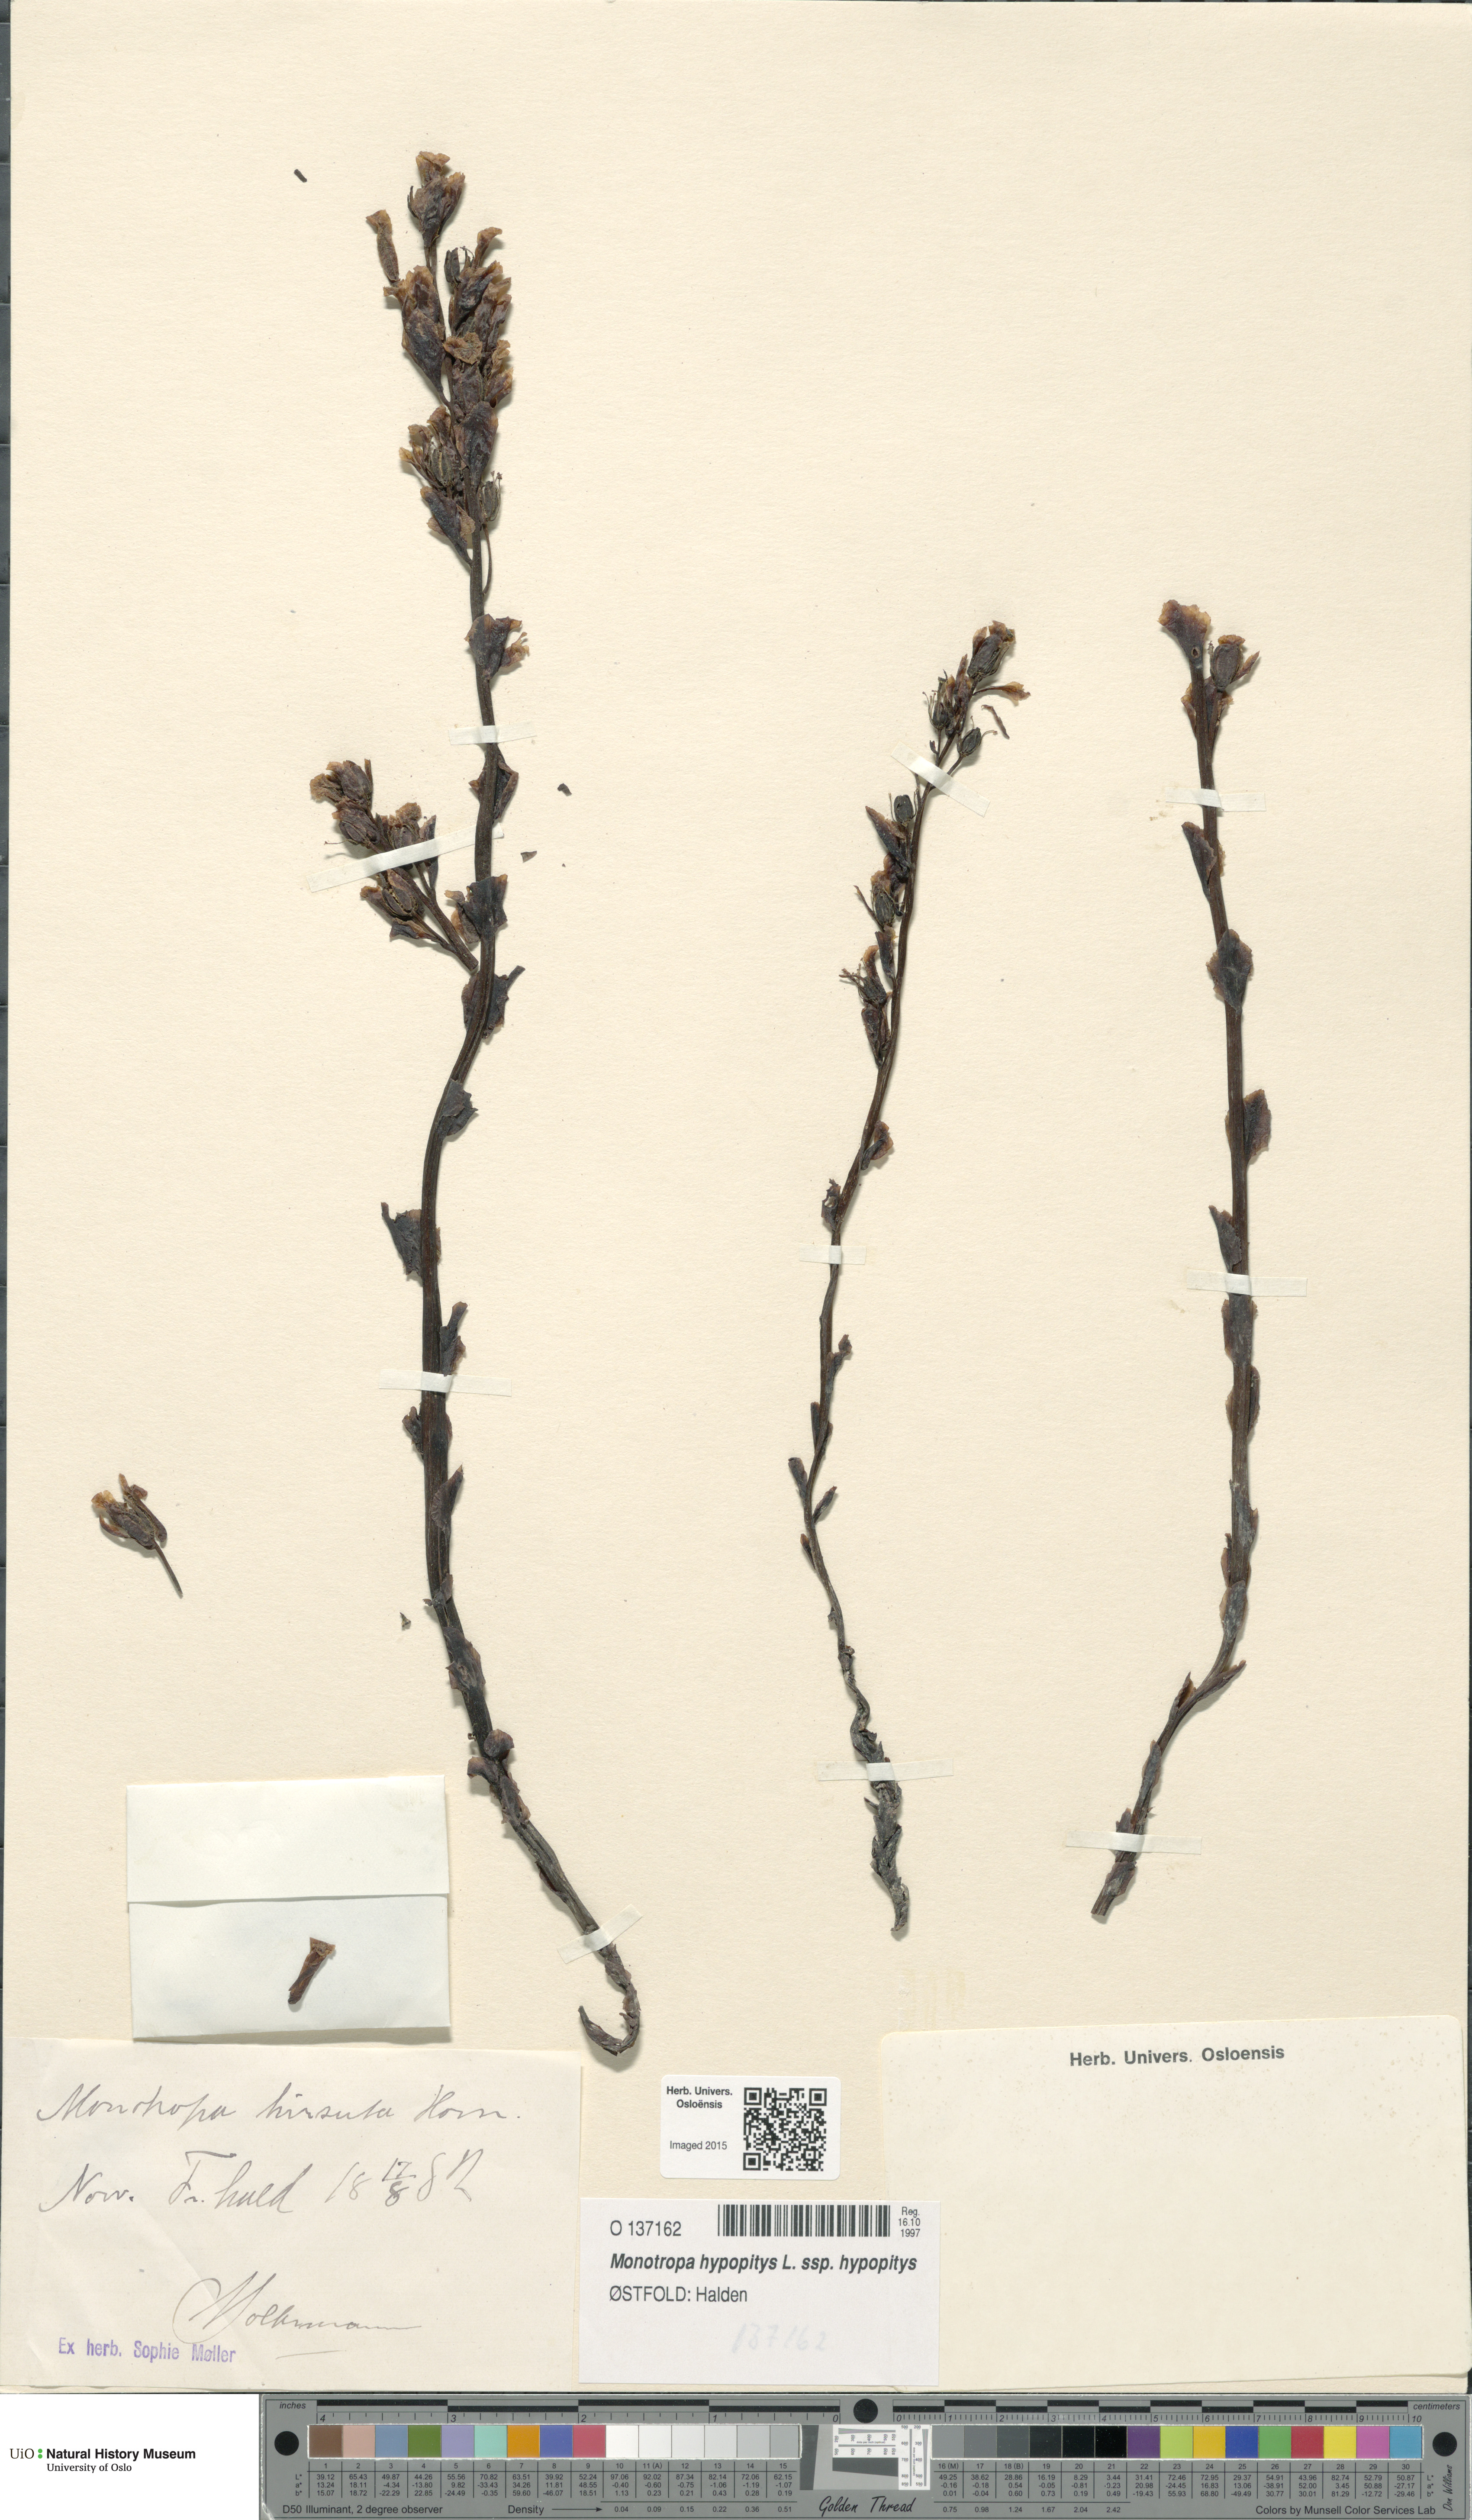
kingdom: Plantae
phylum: Tracheophyta
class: Magnoliopsida
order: Ericales
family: Ericaceae
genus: Hypopitys
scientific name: Hypopitys monotropa
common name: Yellow bird's-nest
